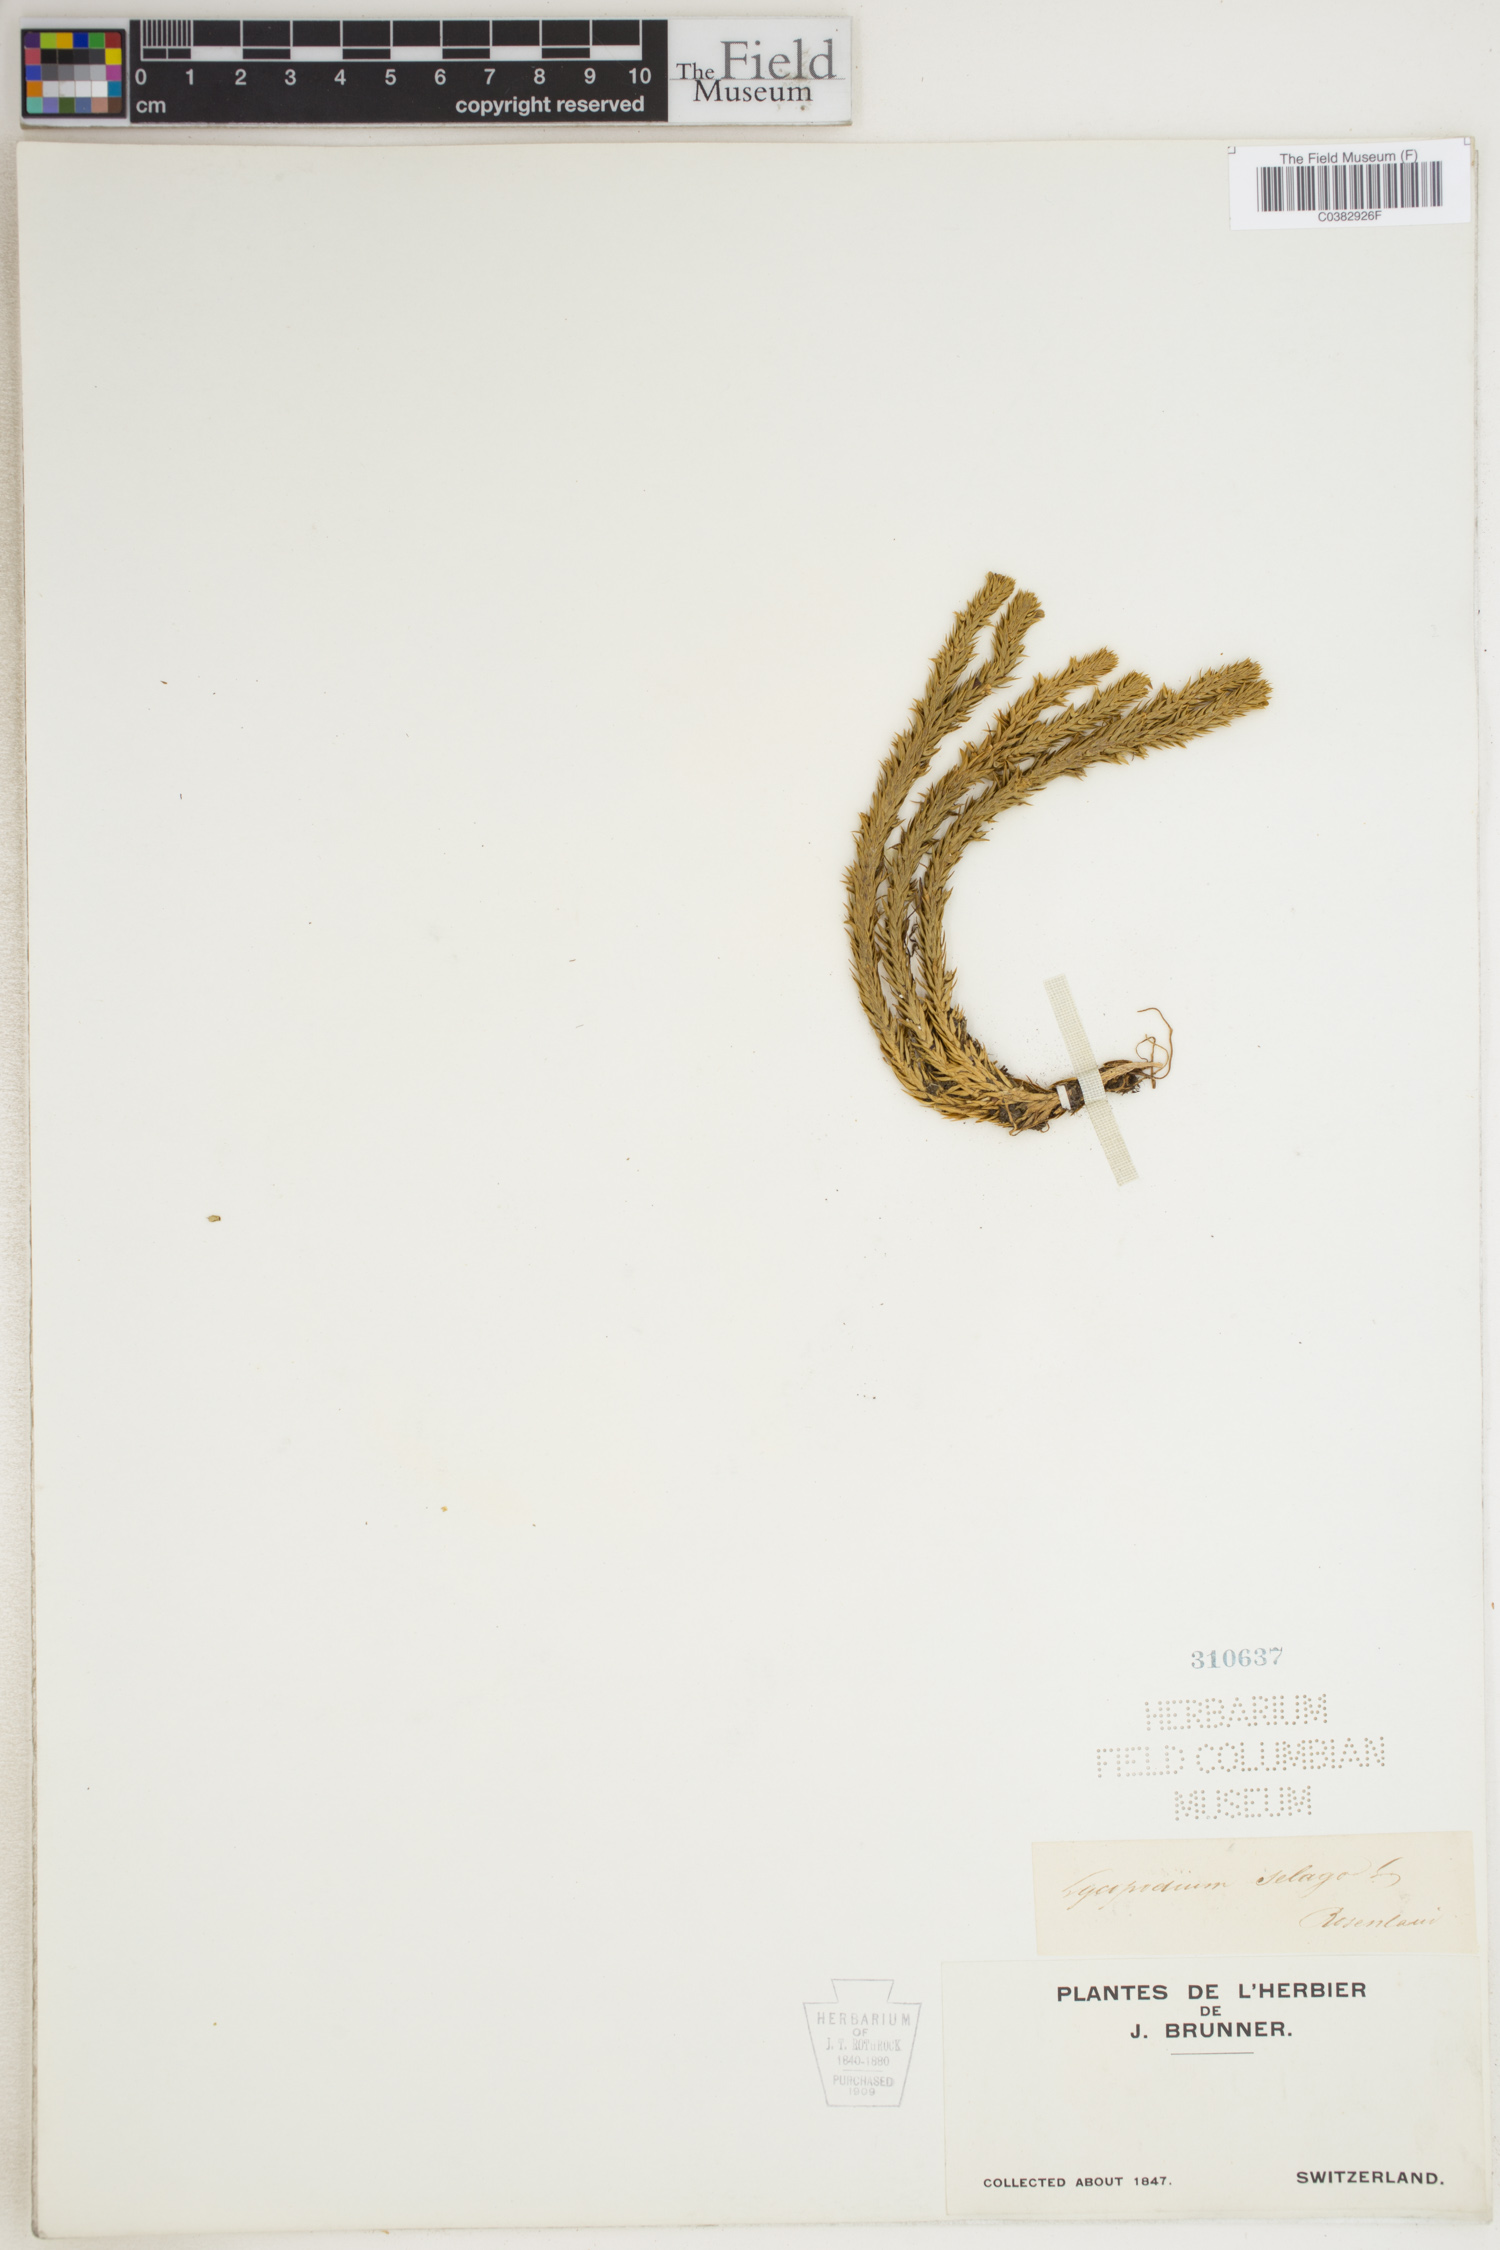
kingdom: Plantae
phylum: Tracheophyta
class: Lycopodiopsida
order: Lycopodiales
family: Lycopodiaceae
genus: Huperzia
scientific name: Huperzia selago
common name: Northern firmoss
